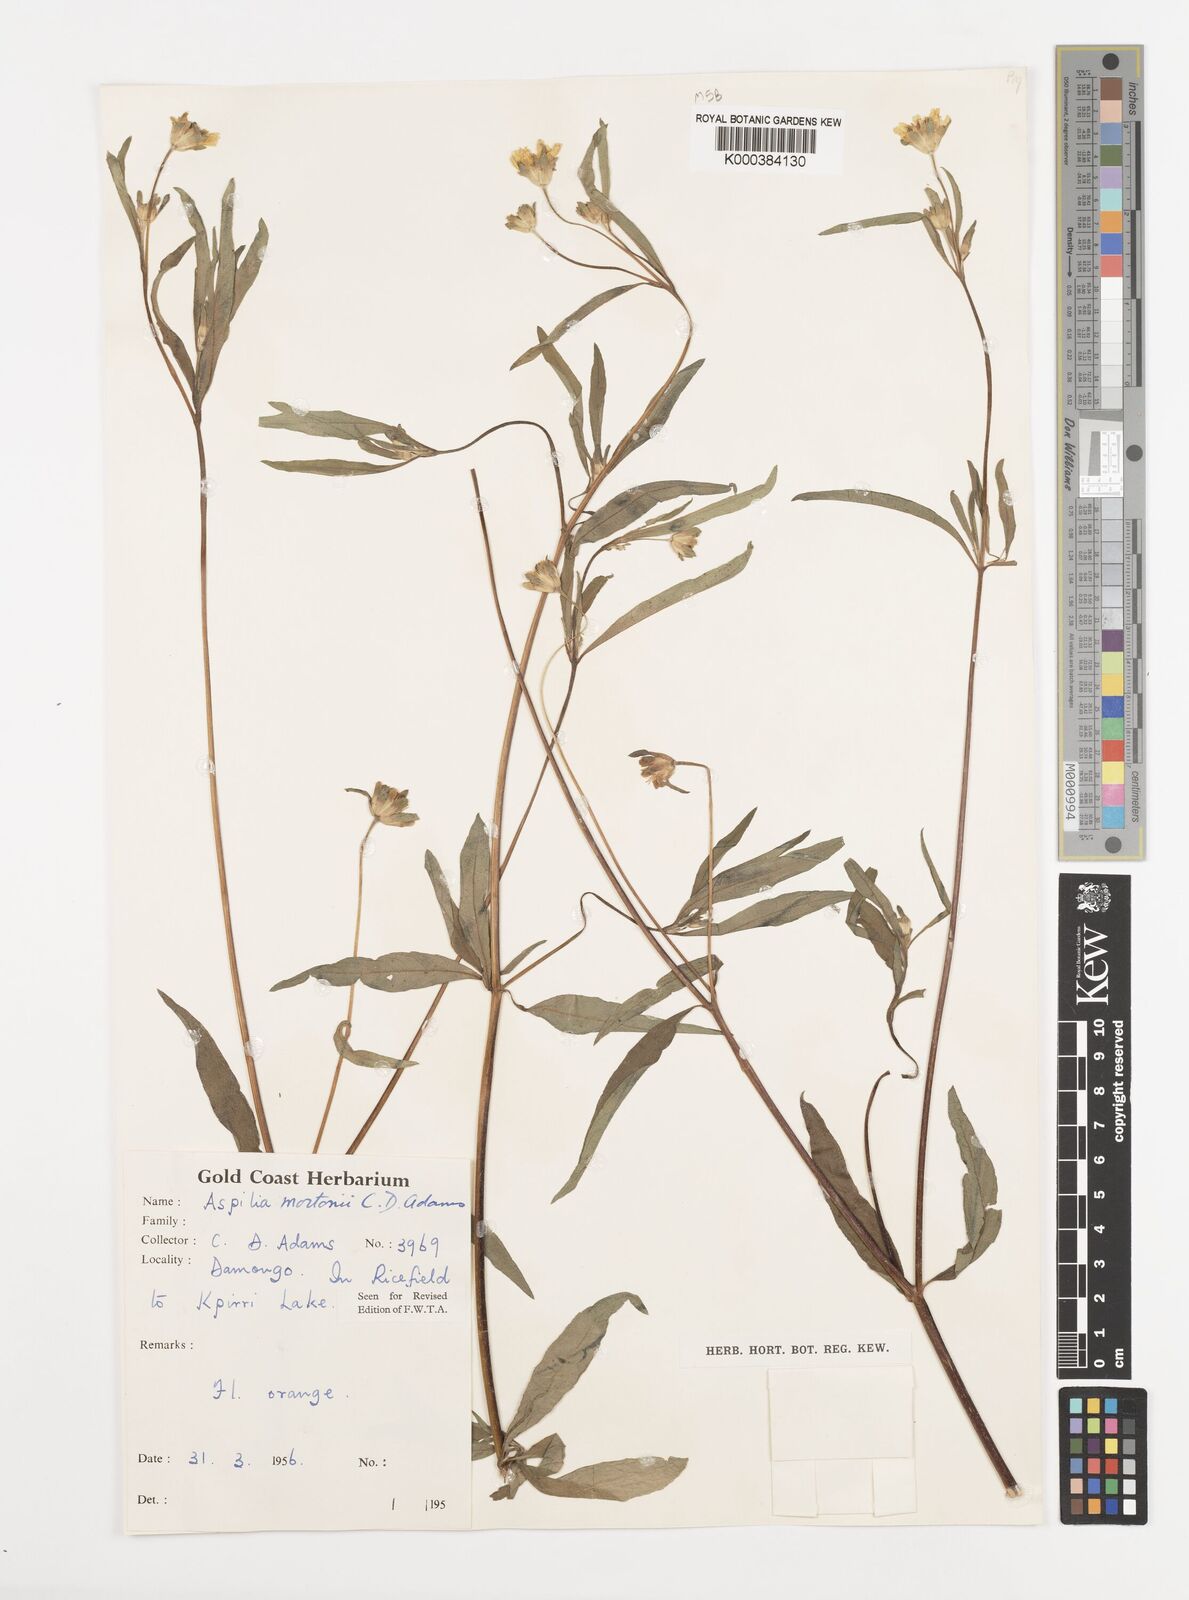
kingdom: Plantae
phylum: Tracheophyta
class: Magnoliopsida
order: Asterales
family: Asteraceae
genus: Aspilia
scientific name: Aspilia angustifolia
